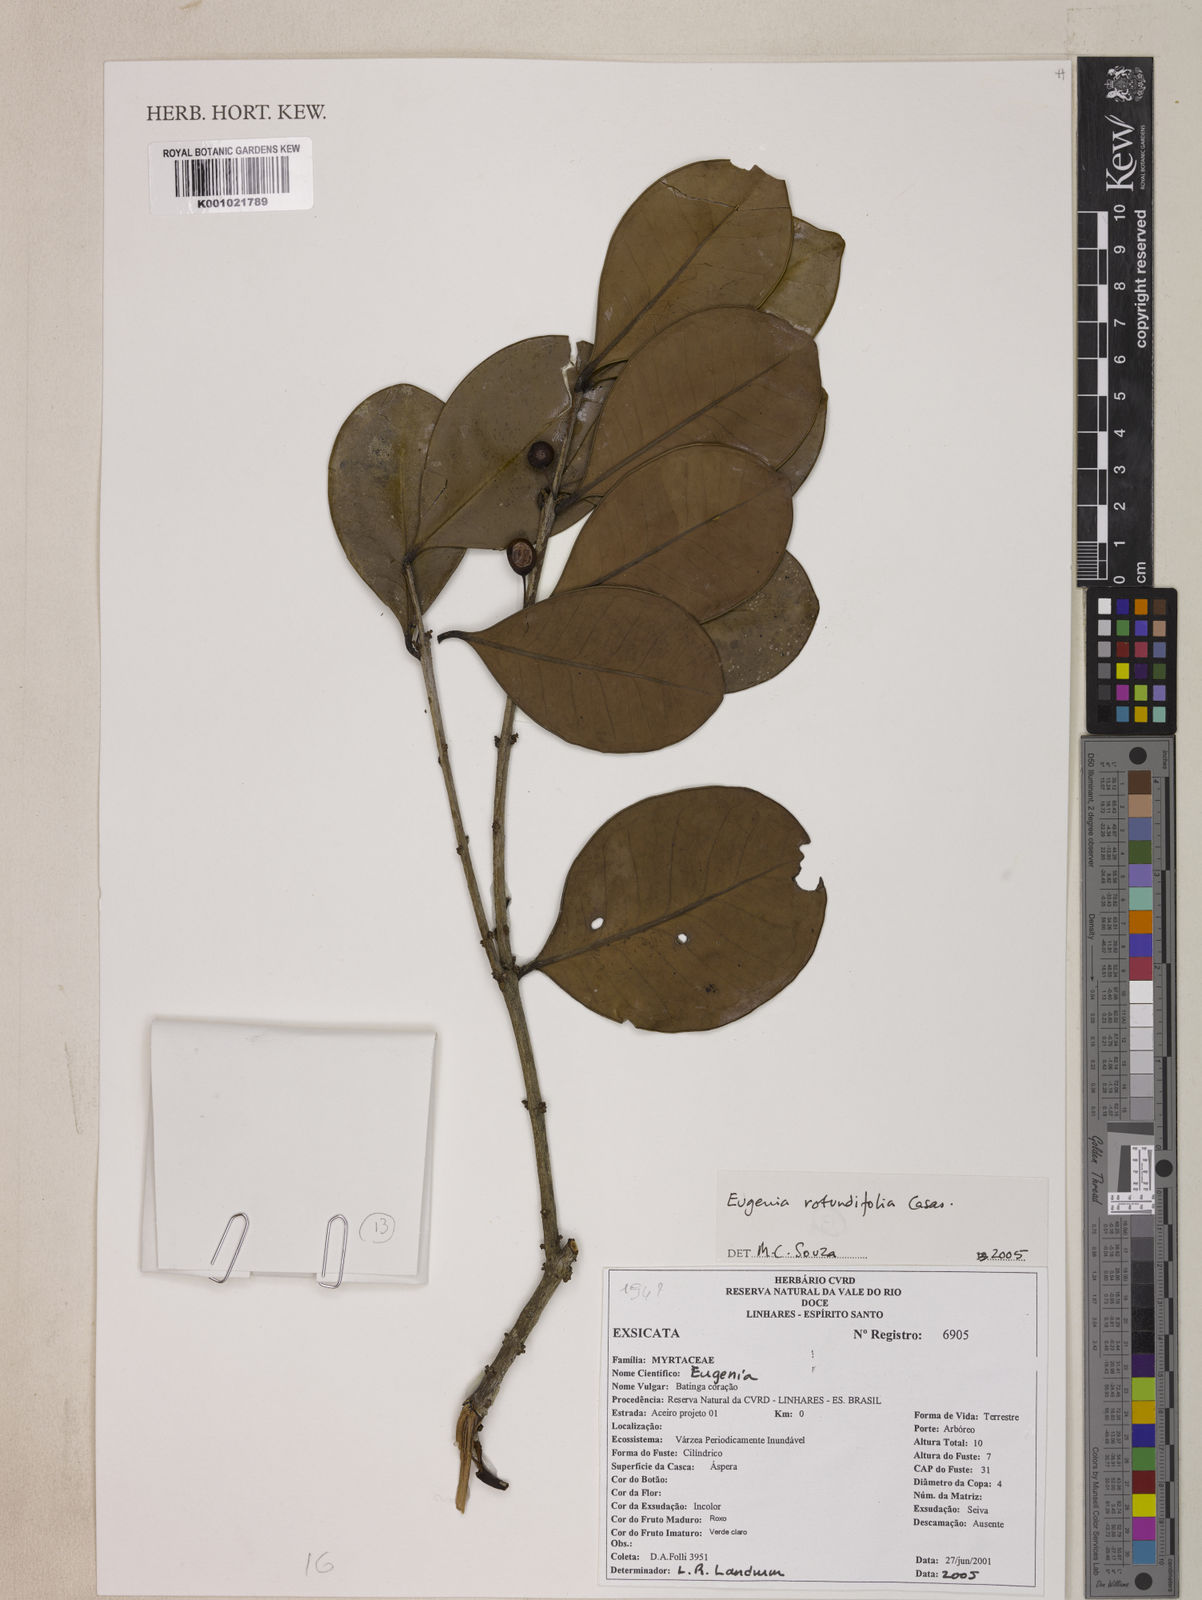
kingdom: Plantae
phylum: Tracheophyta
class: Magnoliopsida
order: Myrtales
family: Myrtaceae
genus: Eugenia
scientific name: Eugenia casarettoana
